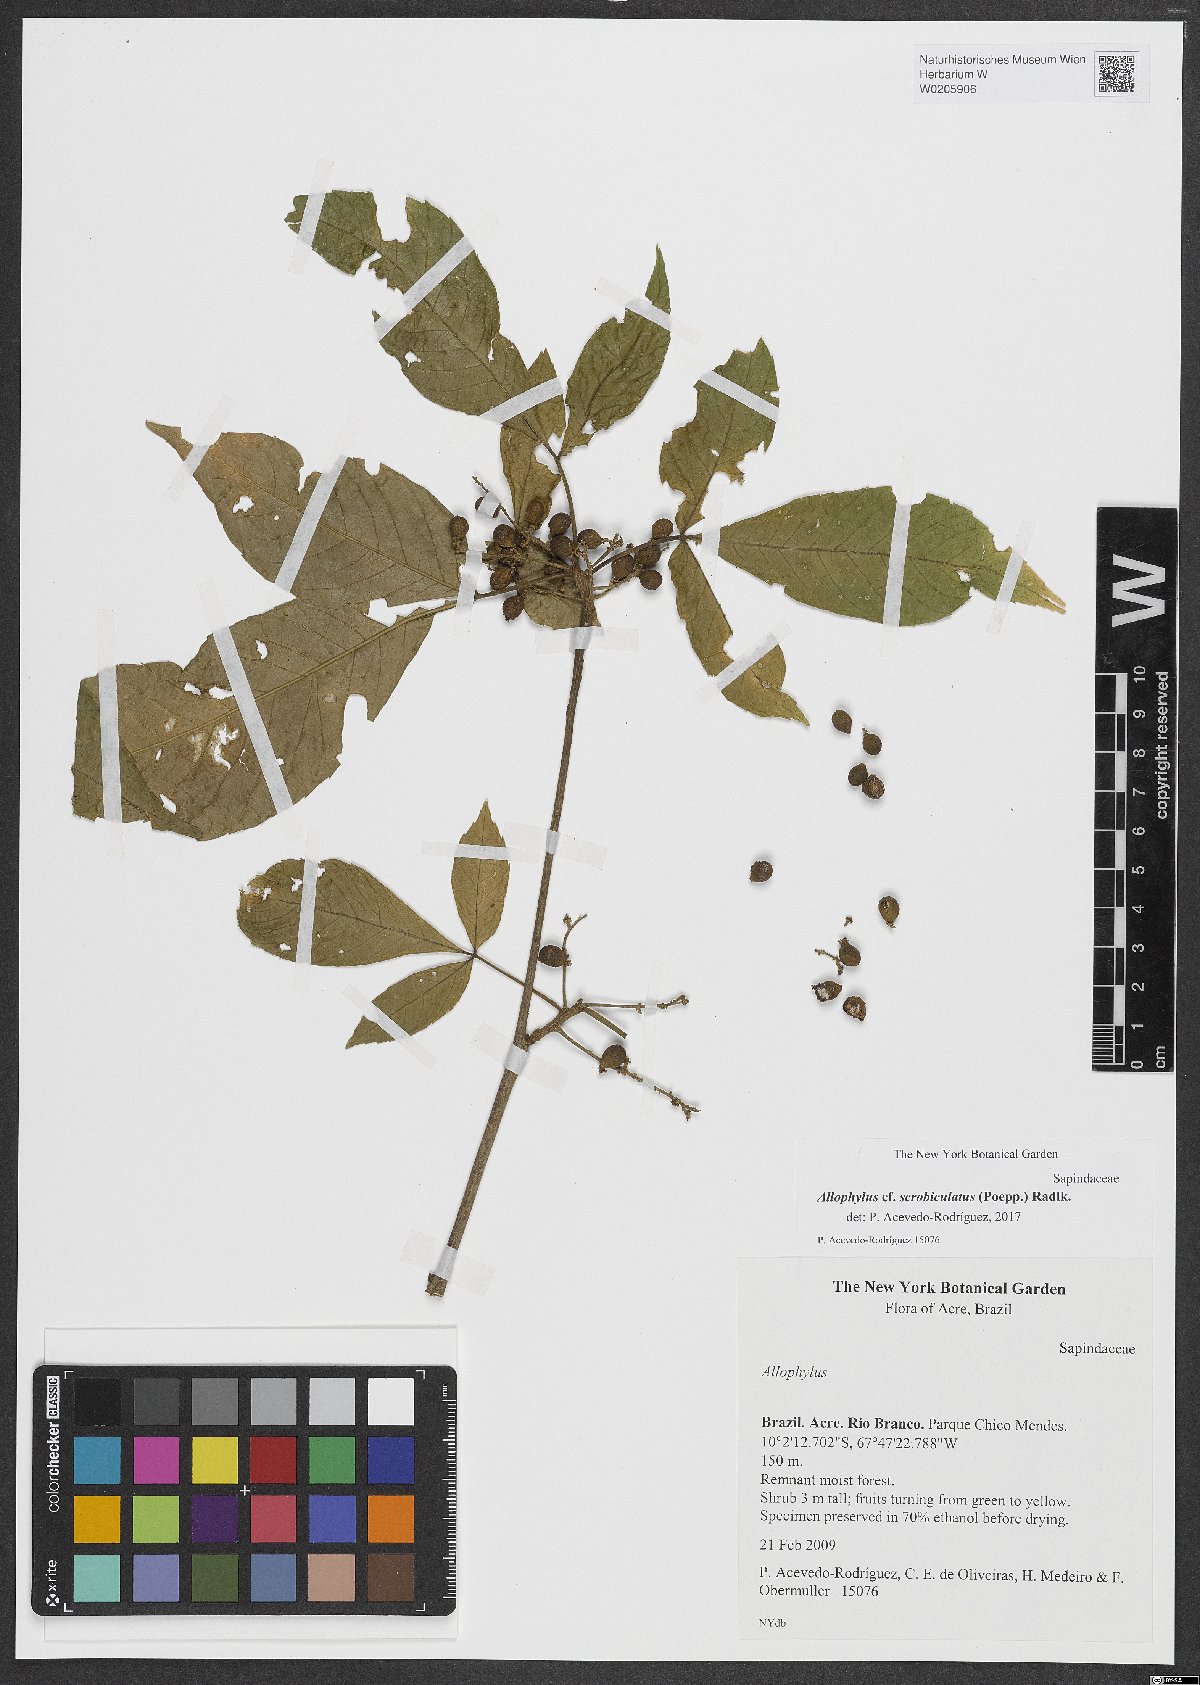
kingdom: Plantae
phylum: Tracheophyta
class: Magnoliopsida
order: Sapindales
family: Sapindaceae
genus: Allophylus
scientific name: Allophylus scrobiculatus
